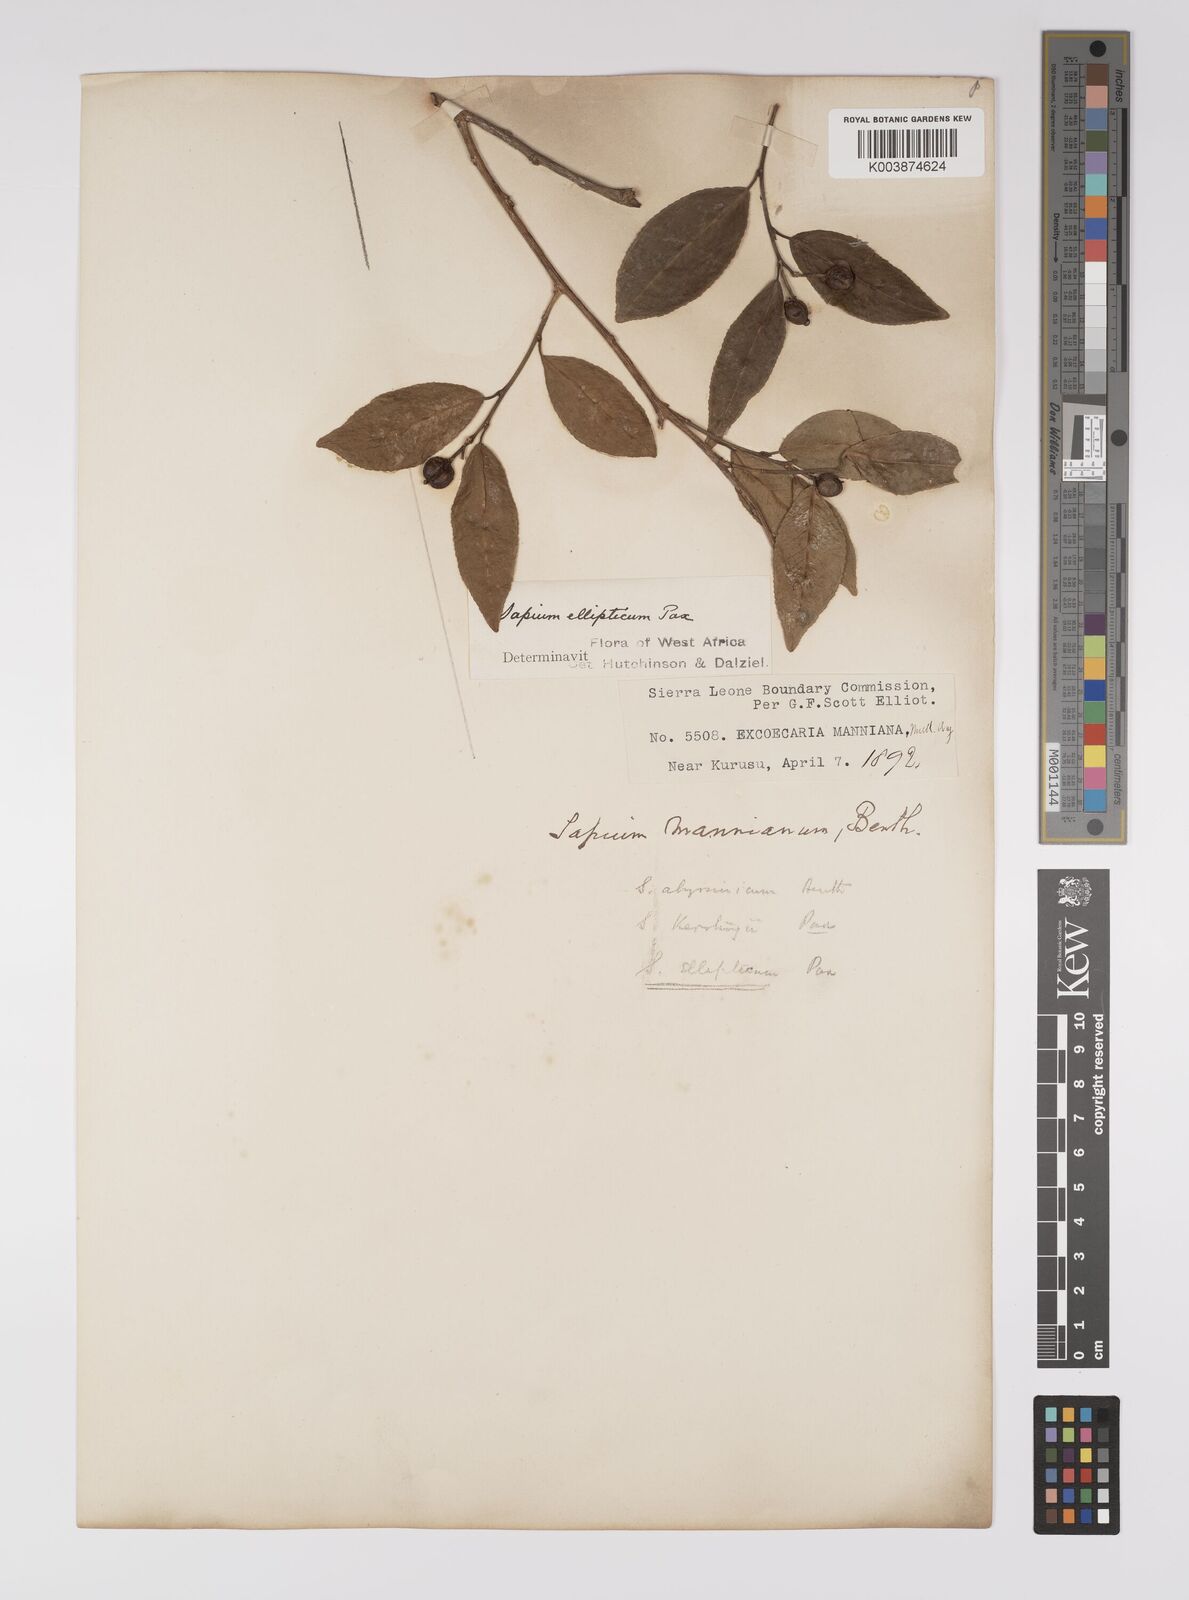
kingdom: Plantae
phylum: Tracheophyta
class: Magnoliopsida
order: Malpighiales
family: Euphorbiaceae
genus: Shirakiopsis
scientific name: Shirakiopsis elliptica
